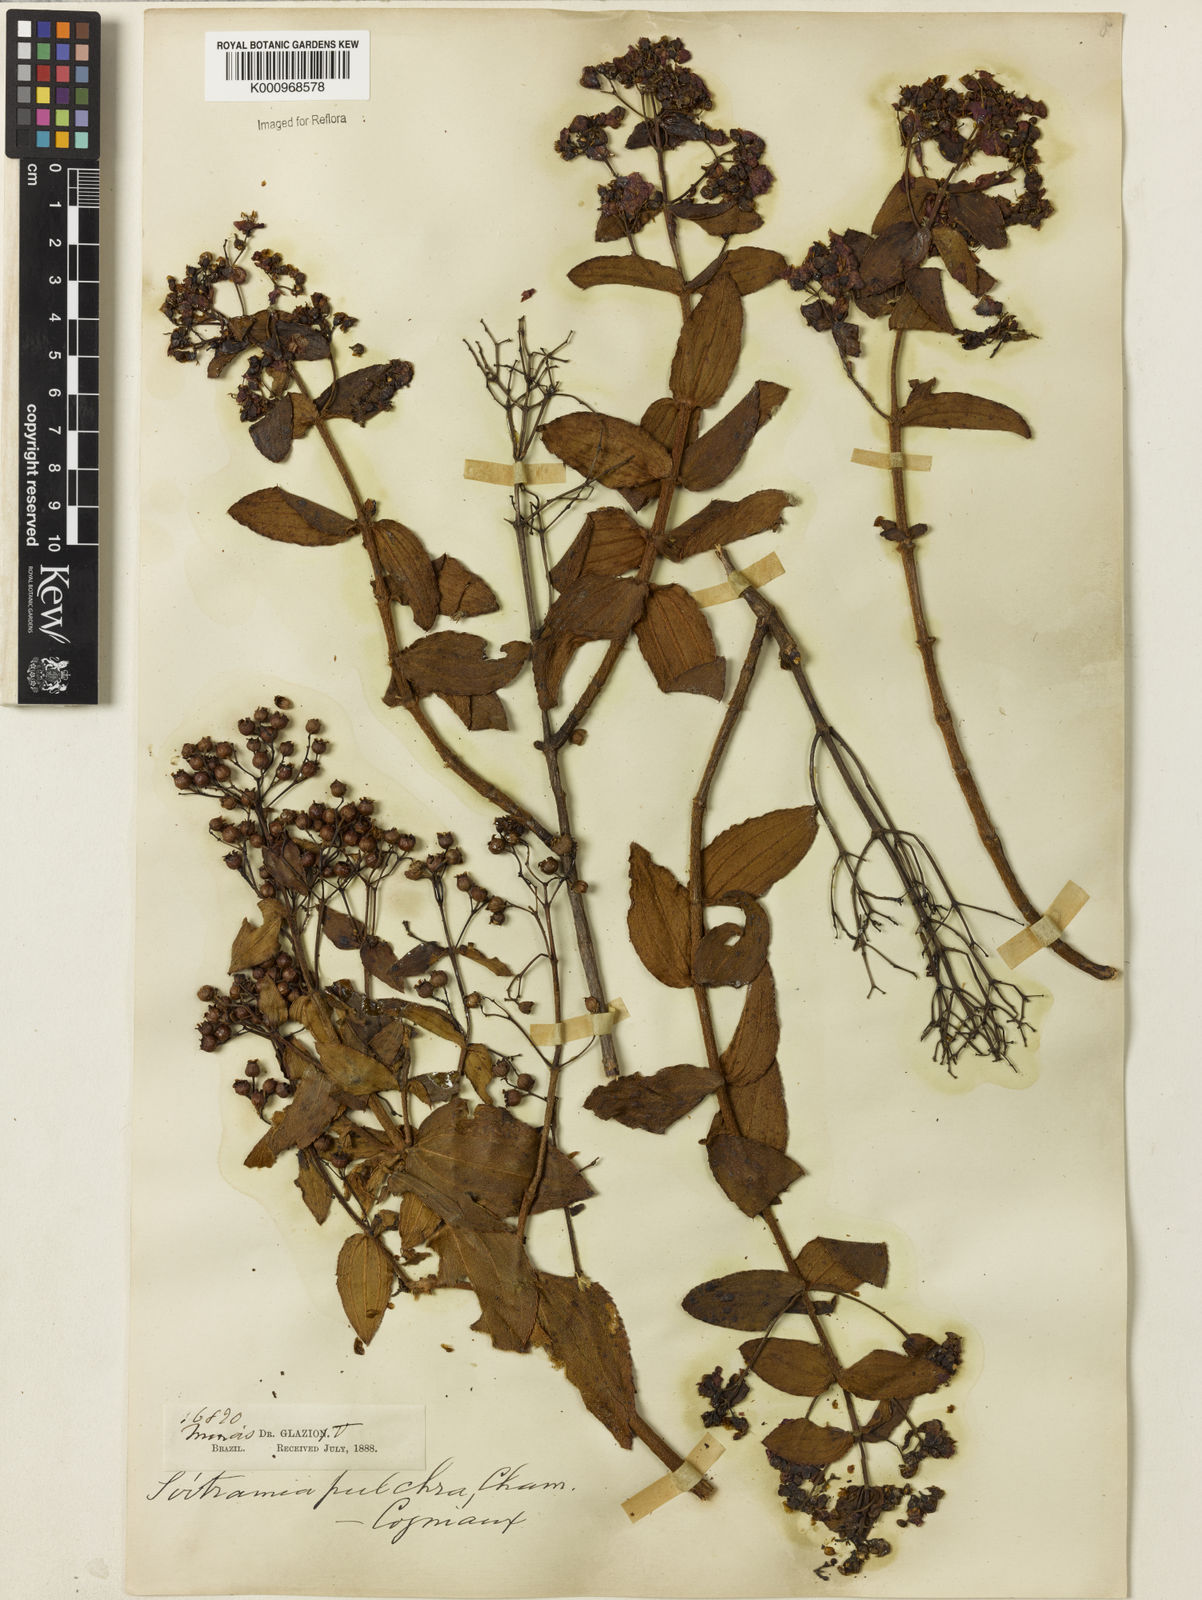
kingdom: Plantae
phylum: Tracheophyta
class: Magnoliopsida
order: Myrtales
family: Melastomataceae
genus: Pleroma
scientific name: Pleroma bandeirae
